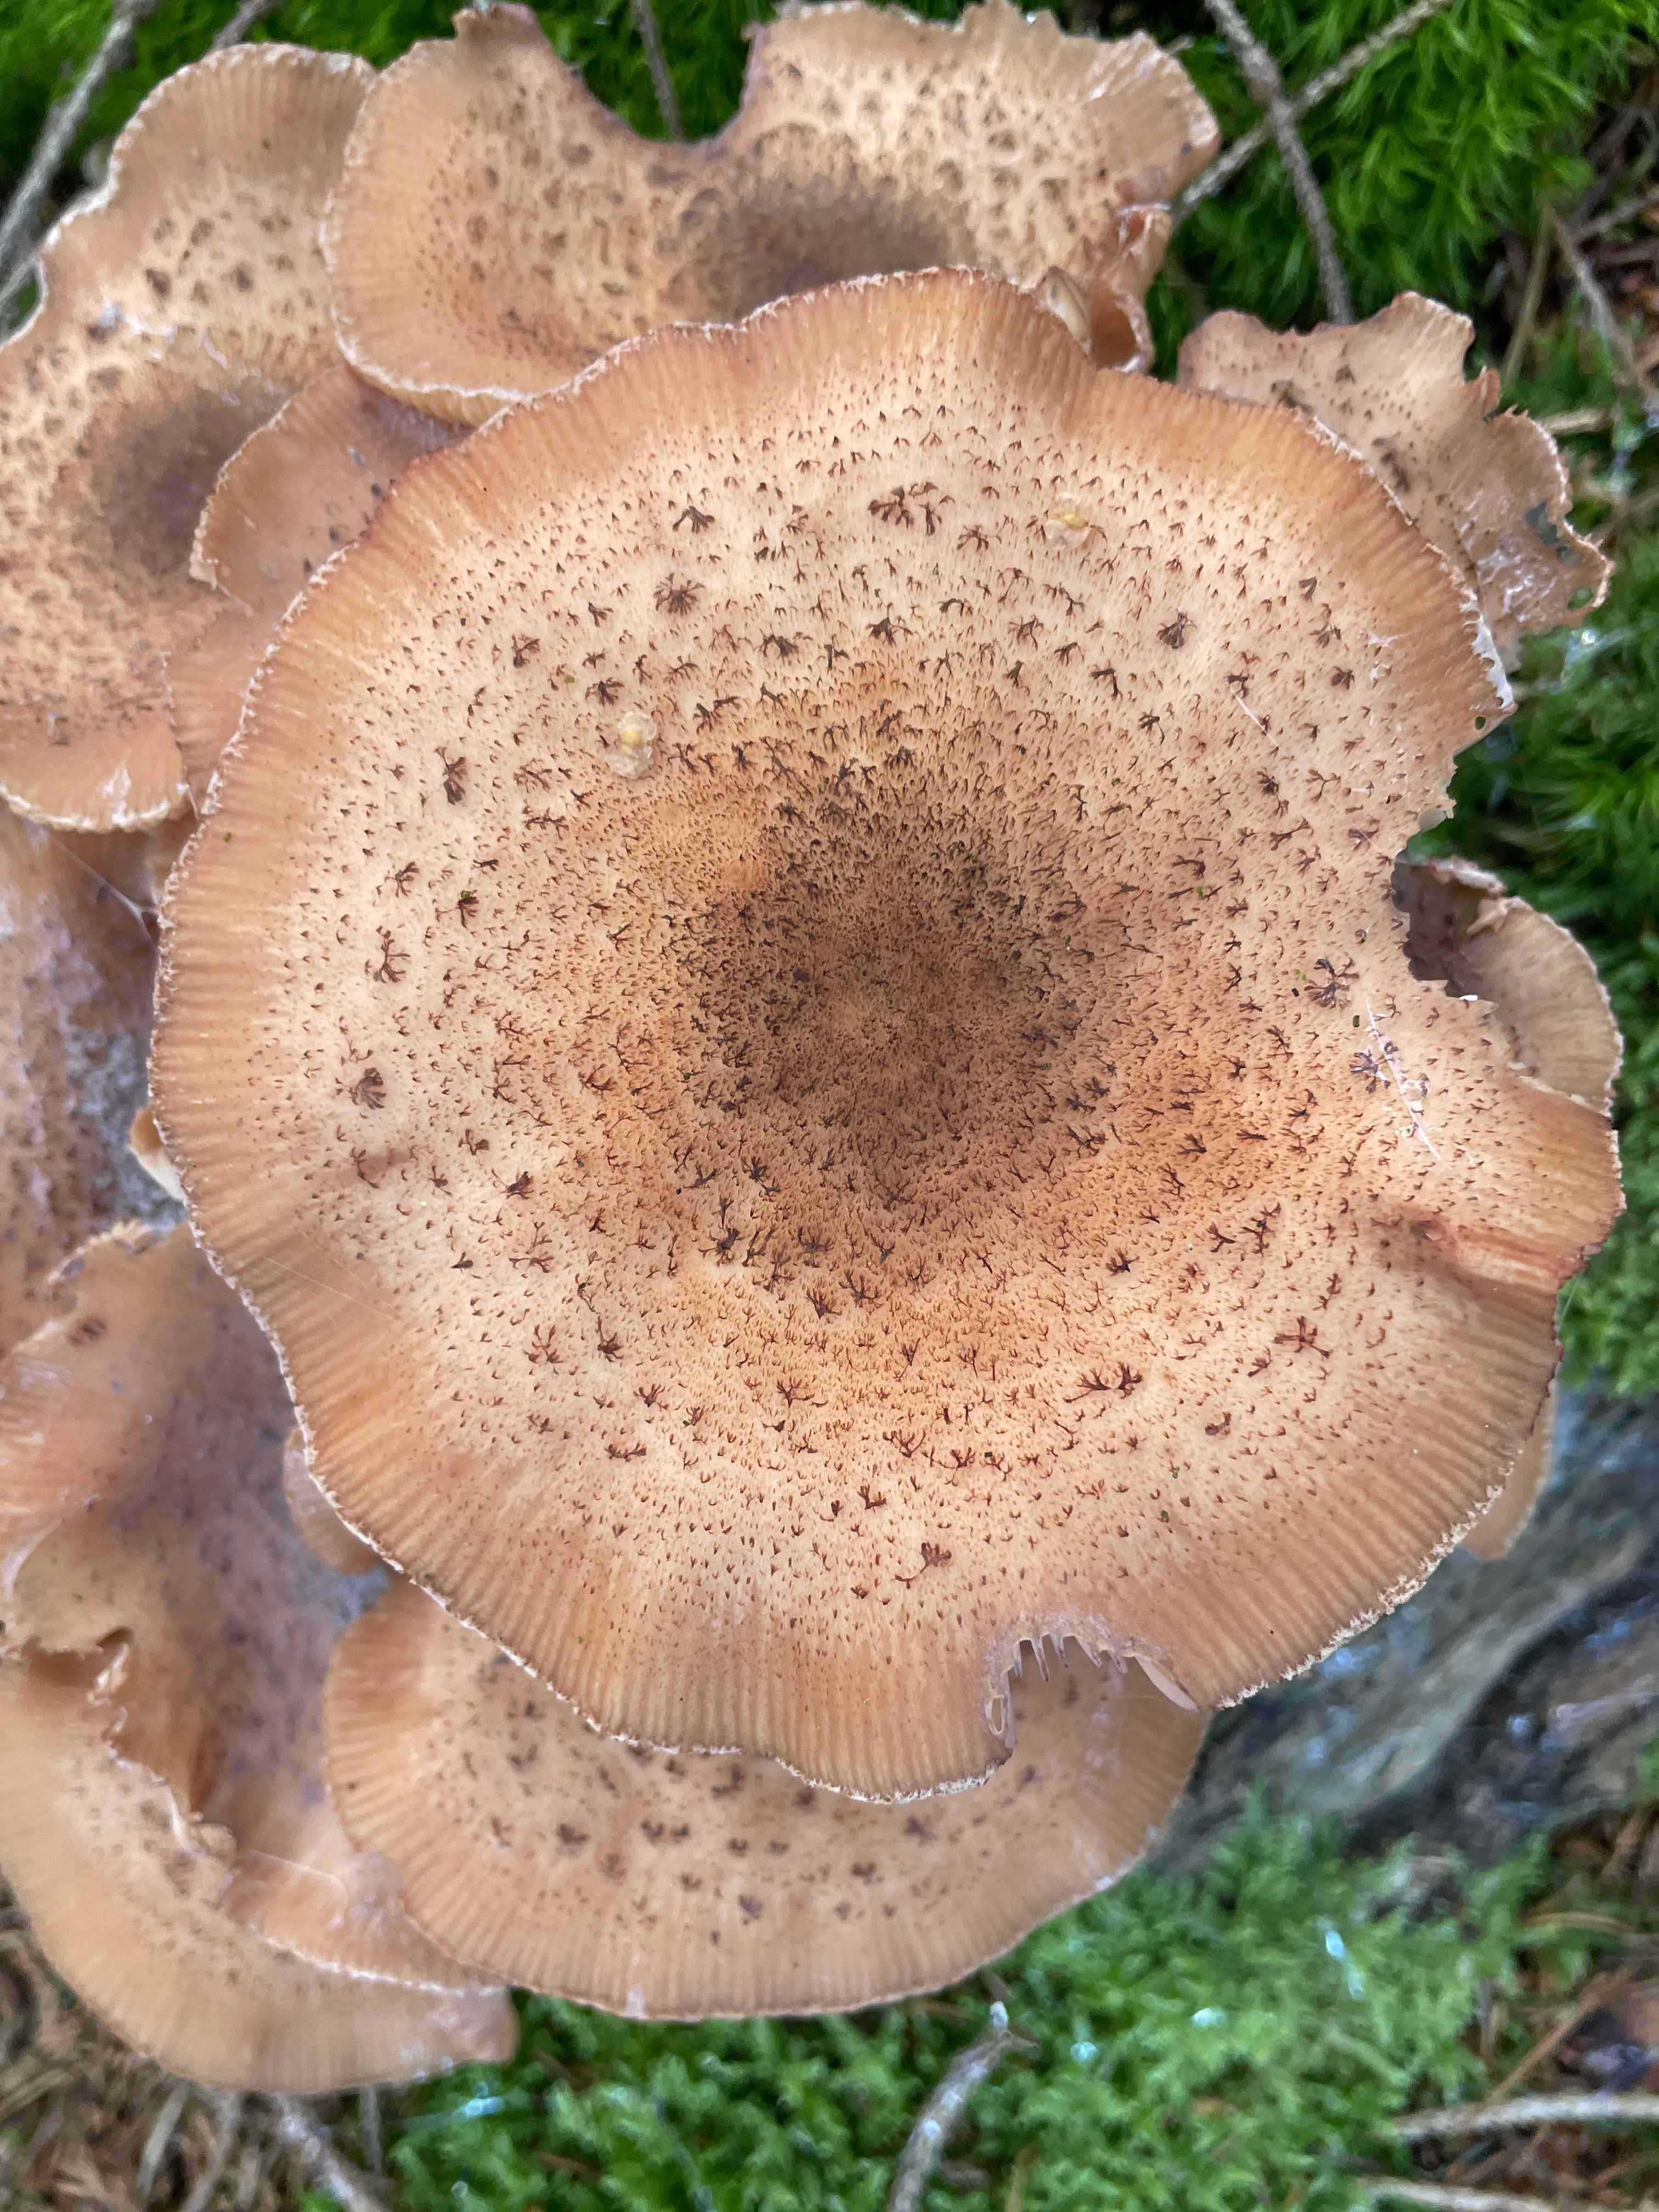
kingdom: Fungi
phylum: Basidiomycota
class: Agaricomycetes
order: Agaricales
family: Physalacriaceae
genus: Armillaria
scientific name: Armillaria ostoyae
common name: mørk honningsvamp
